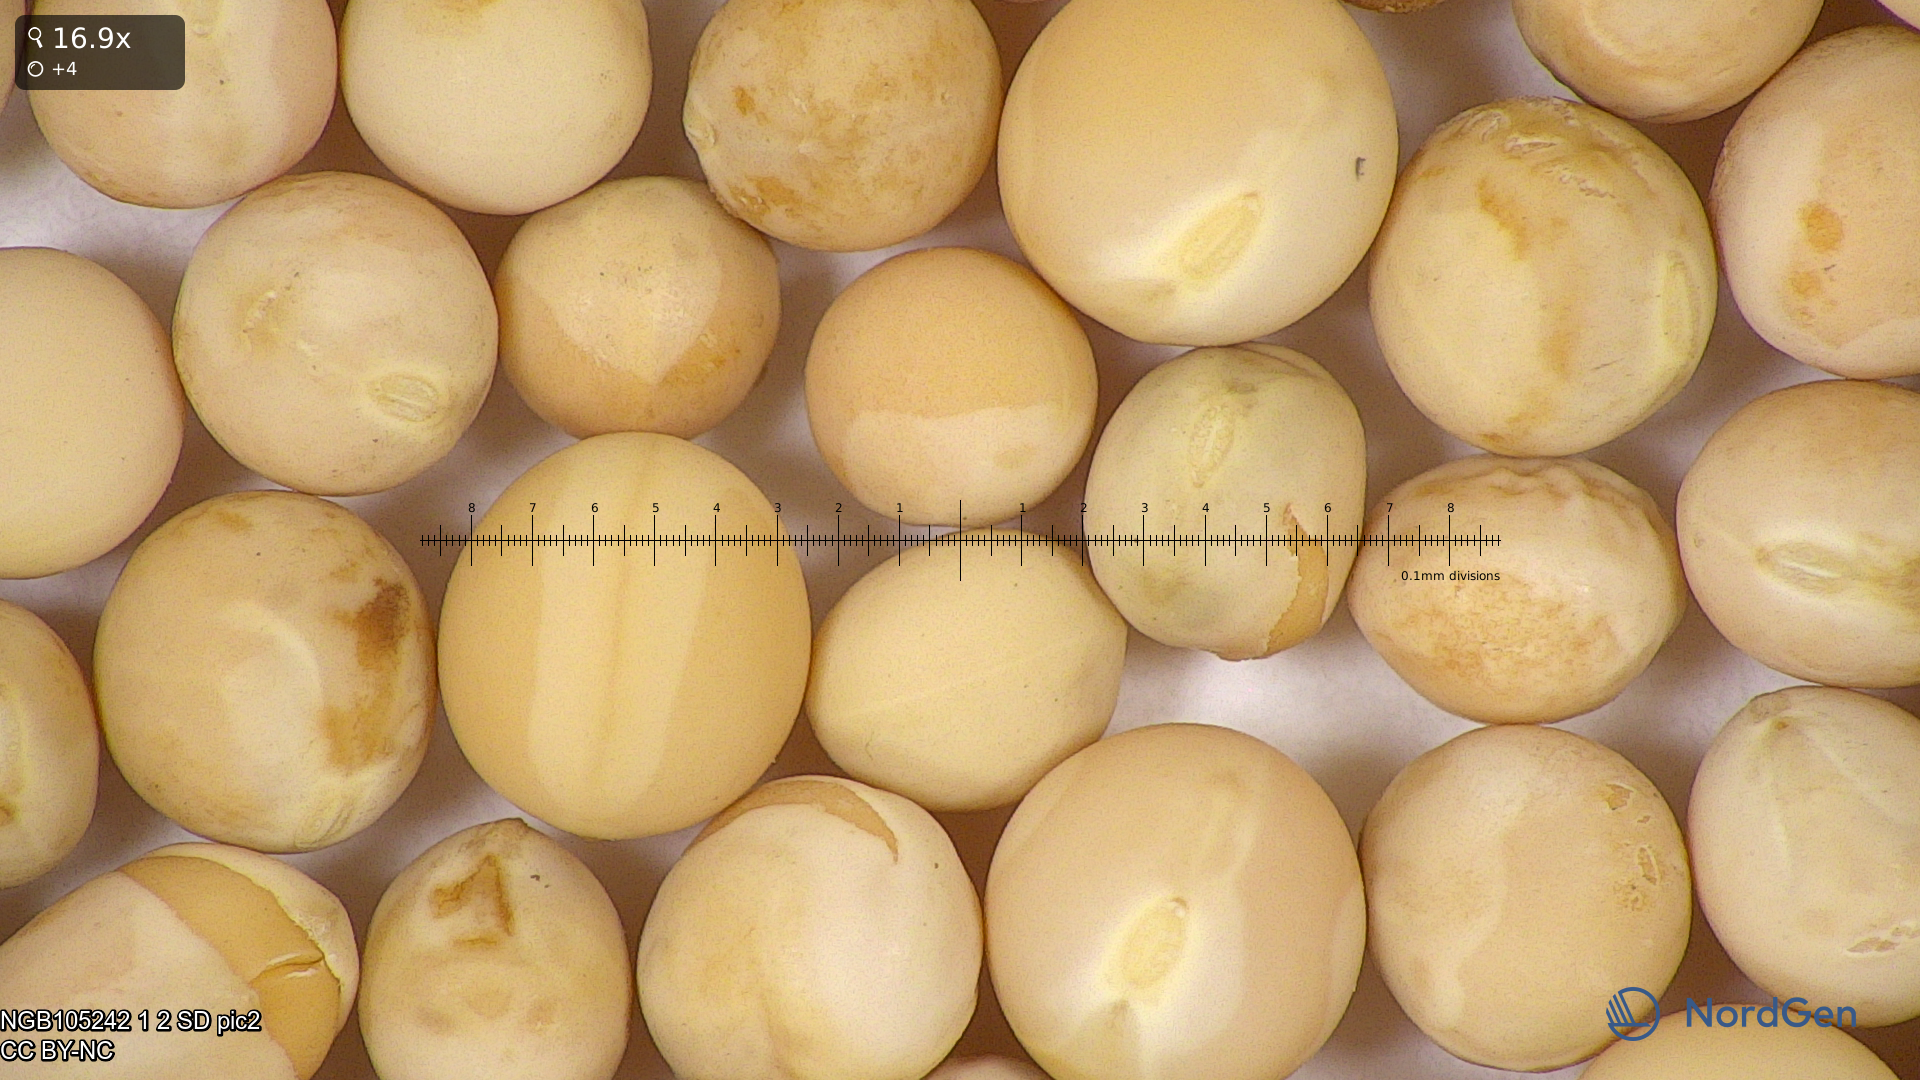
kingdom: Plantae
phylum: Tracheophyta
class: Magnoliopsida
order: Fabales
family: Fabaceae
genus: Lathyrus
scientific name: Lathyrus oleraceus
